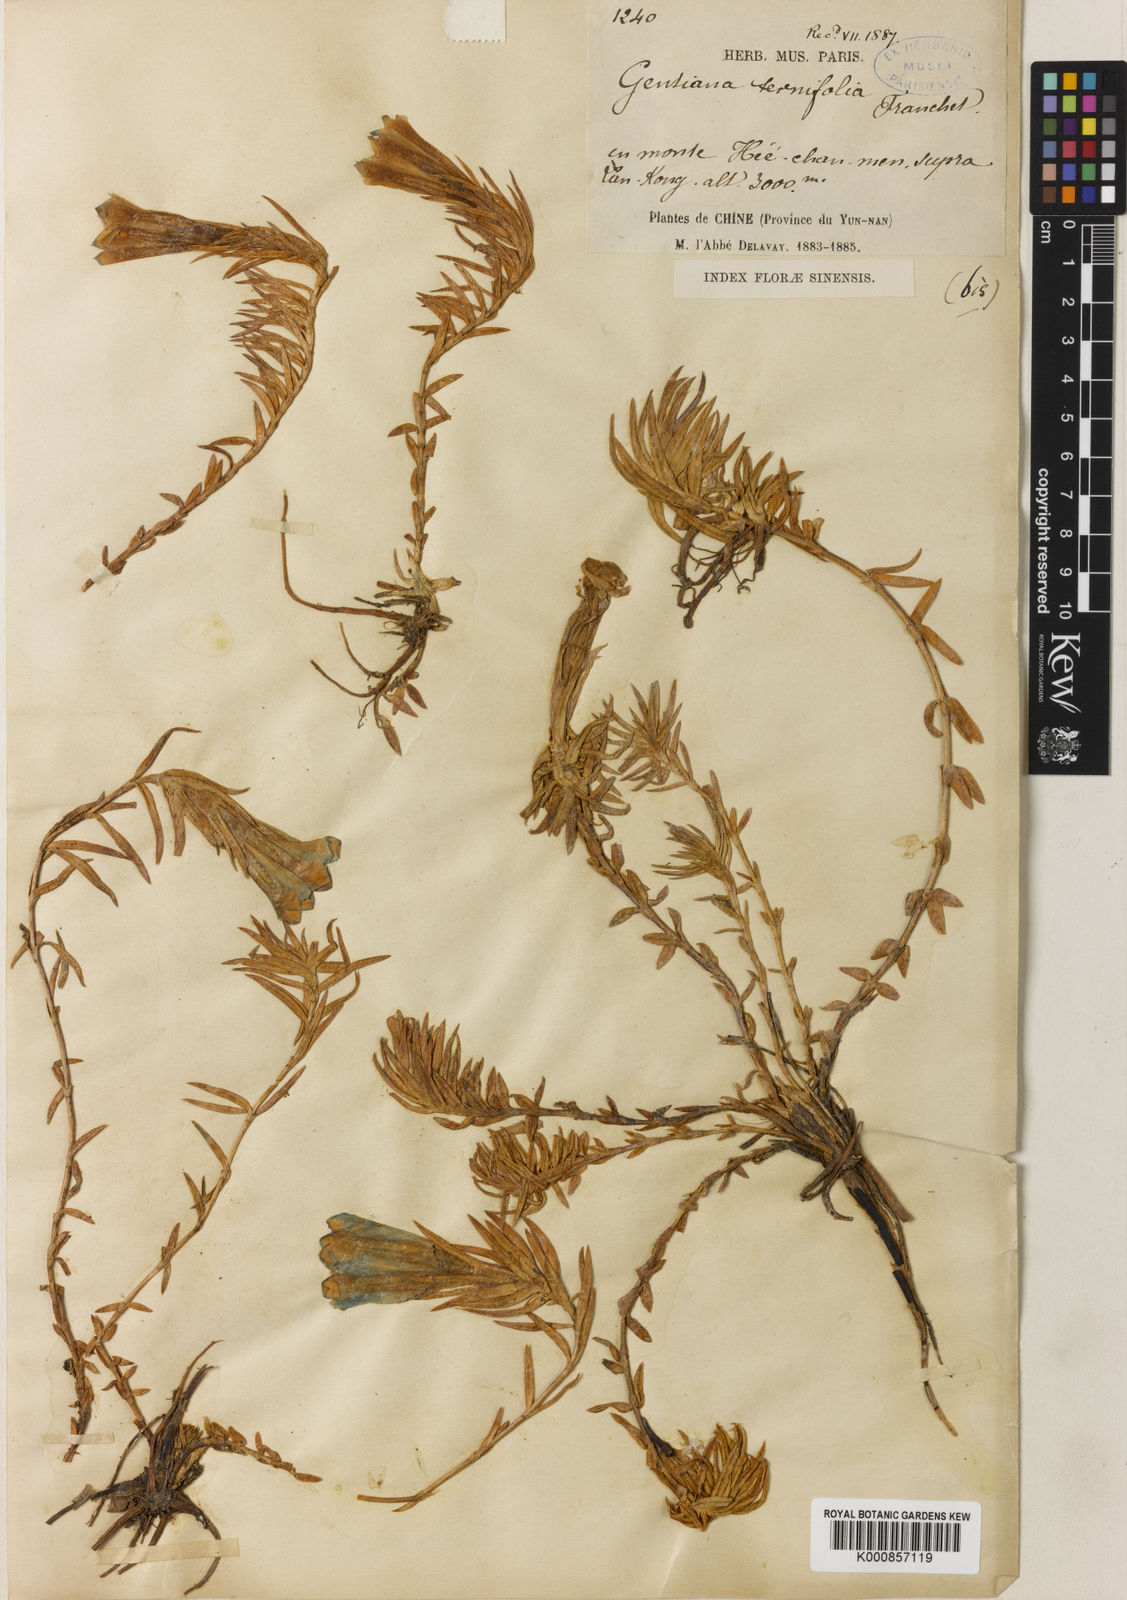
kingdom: Plantae
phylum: Tracheophyta
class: Magnoliopsida
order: Gentianales
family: Gentianaceae
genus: Gentiana
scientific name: Gentiana ternifolia
